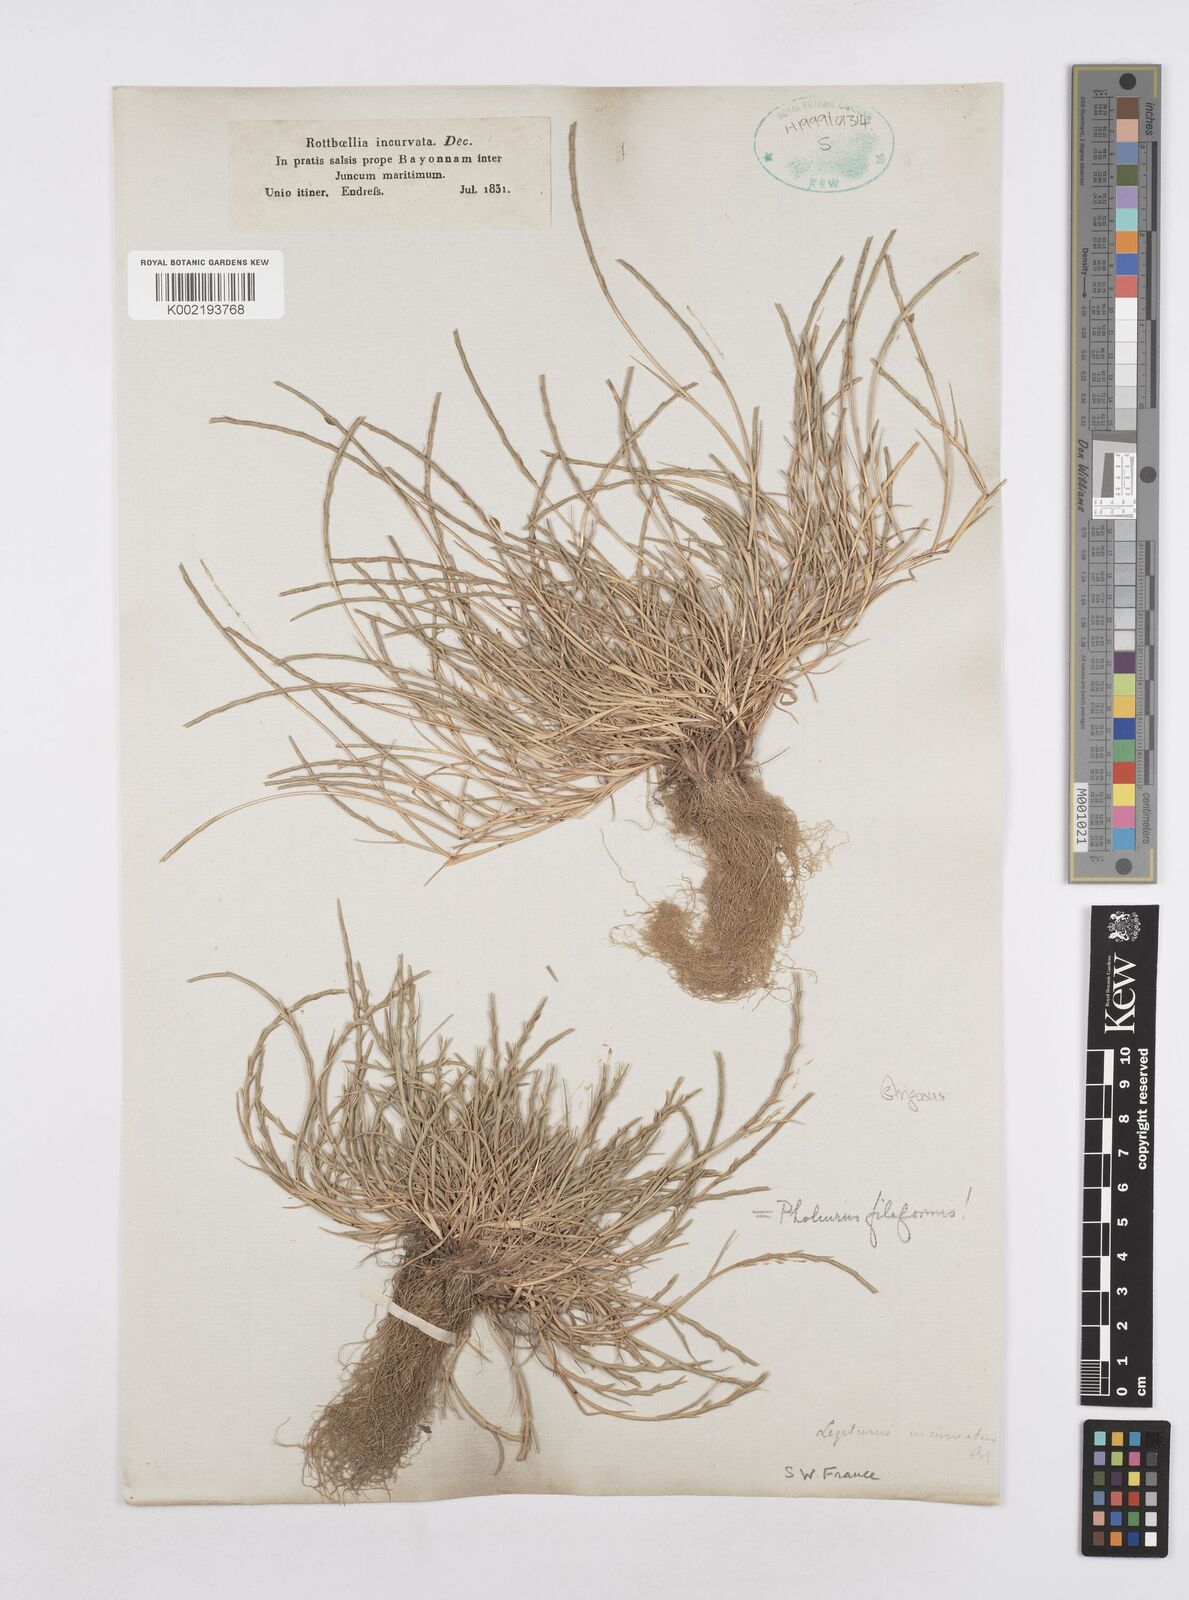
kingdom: Plantae
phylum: Tracheophyta
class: Liliopsida
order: Poales
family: Poaceae
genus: Parapholis
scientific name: Parapholis strigosa
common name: Hard-grass
